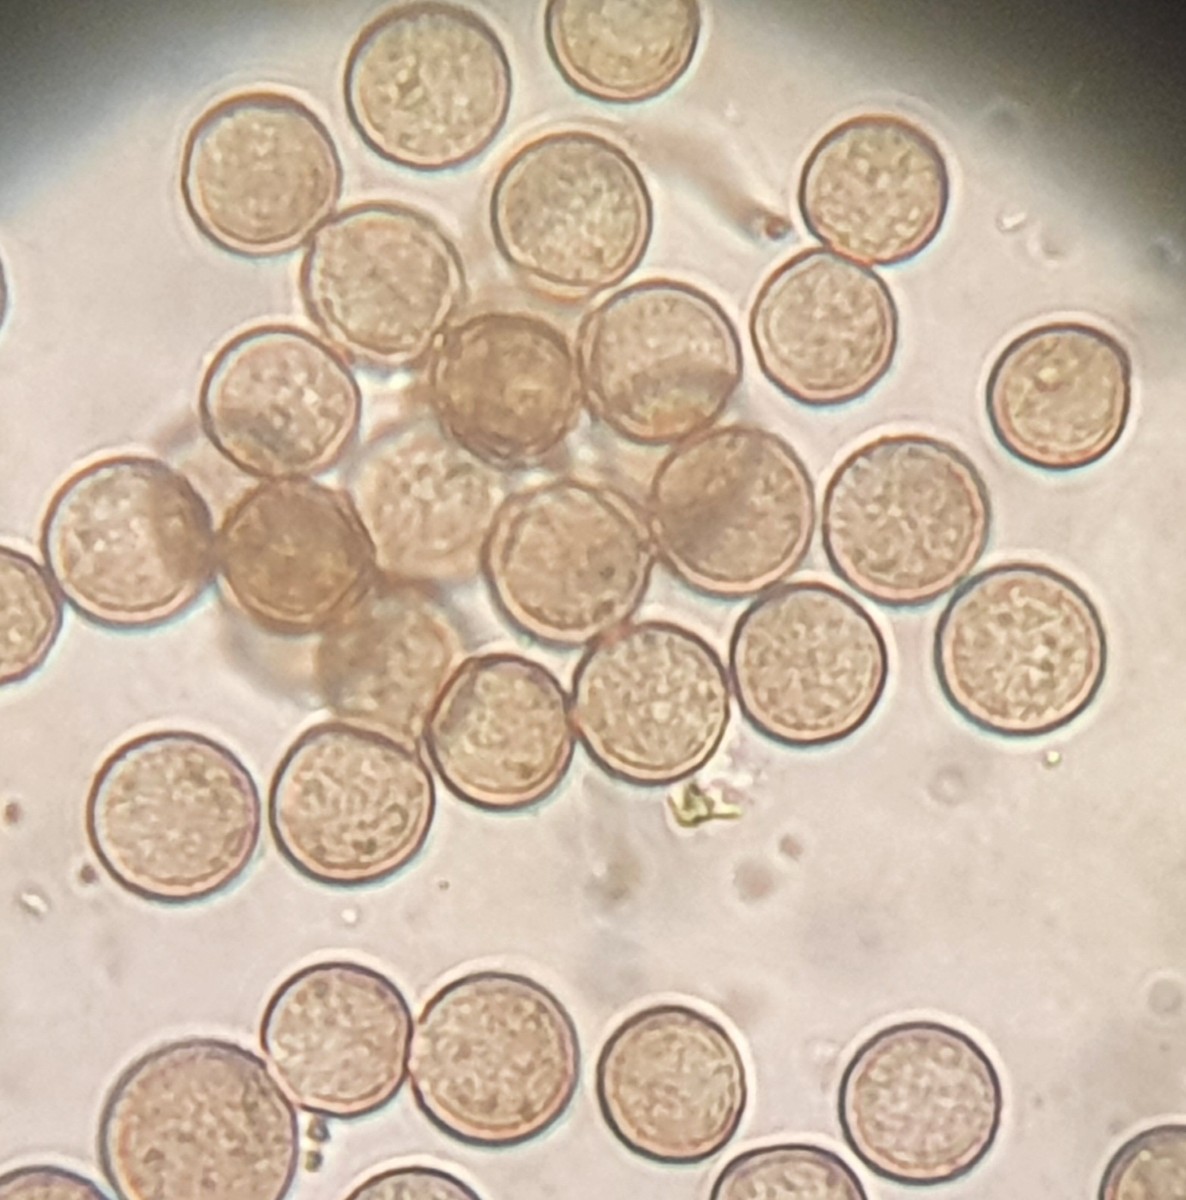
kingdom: Protozoa
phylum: Mycetozoa
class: Myxomycetes
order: Stemonitidales
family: Stemonitidaceae
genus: Comatricha
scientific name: Comatricha nigra
